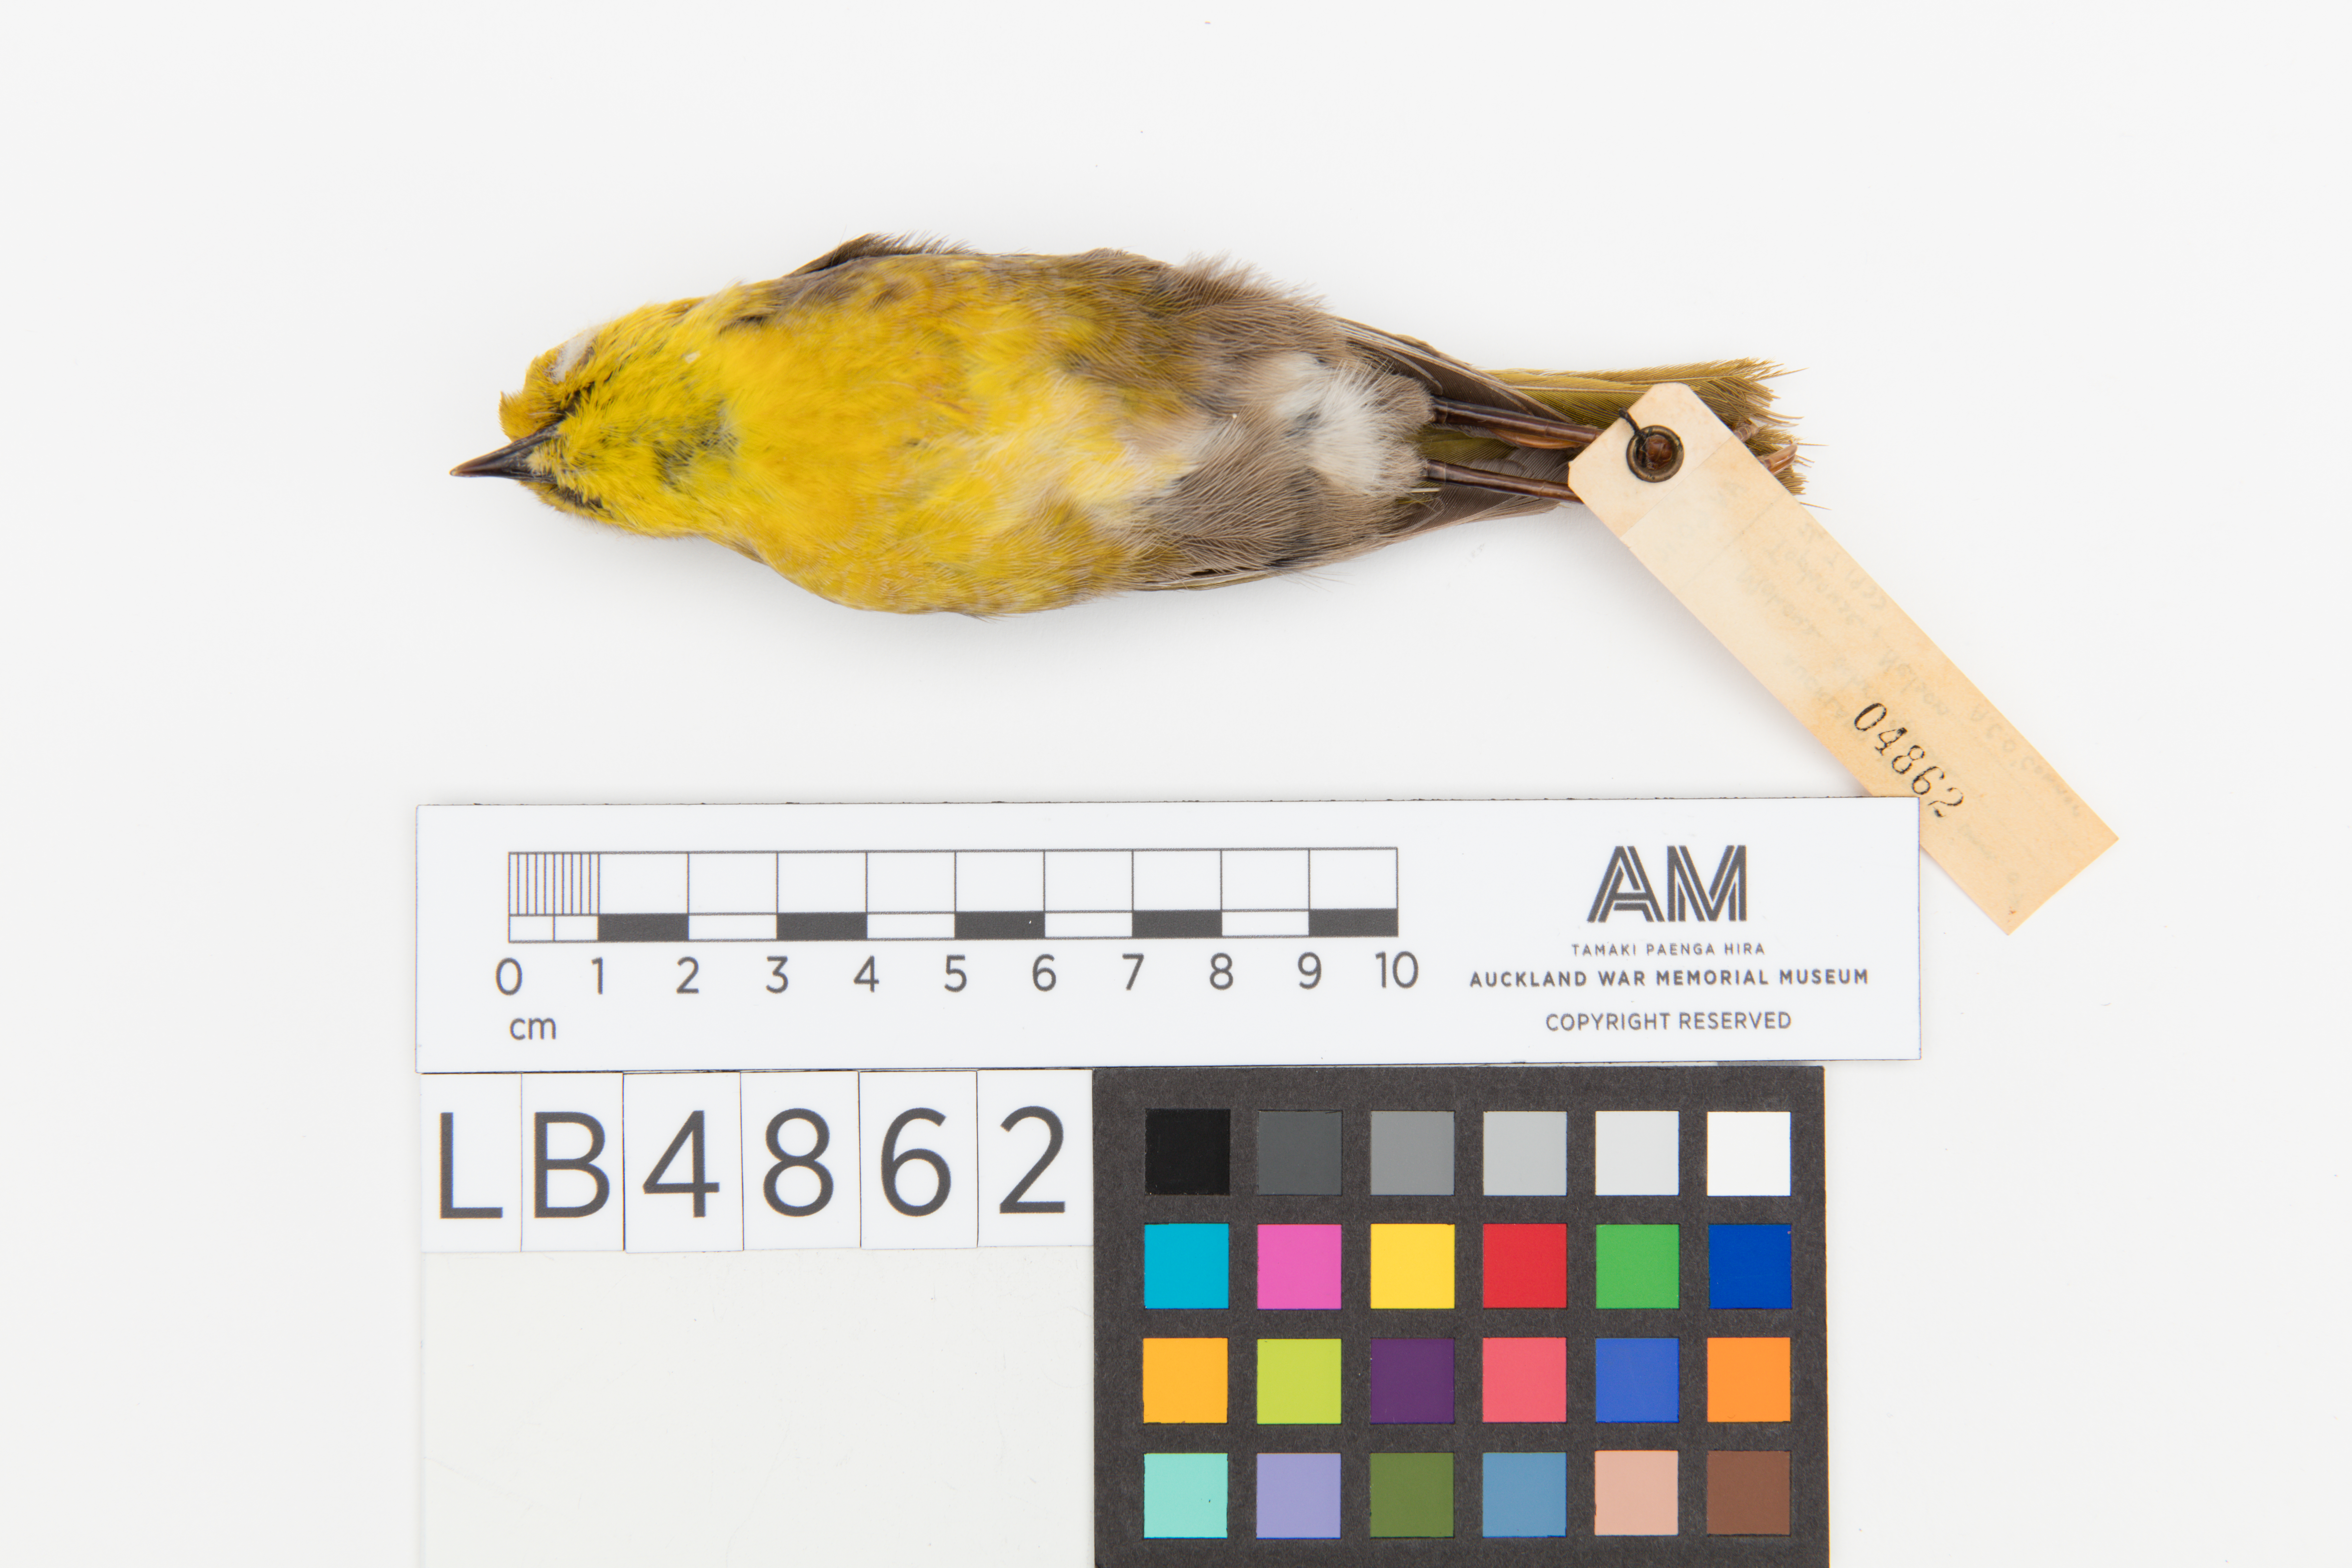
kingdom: Animalia
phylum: Chordata
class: Aves
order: Passeriformes
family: Acanthizidae
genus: Mohoua
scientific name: Mohoua ochrocephala
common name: Yellowhead
